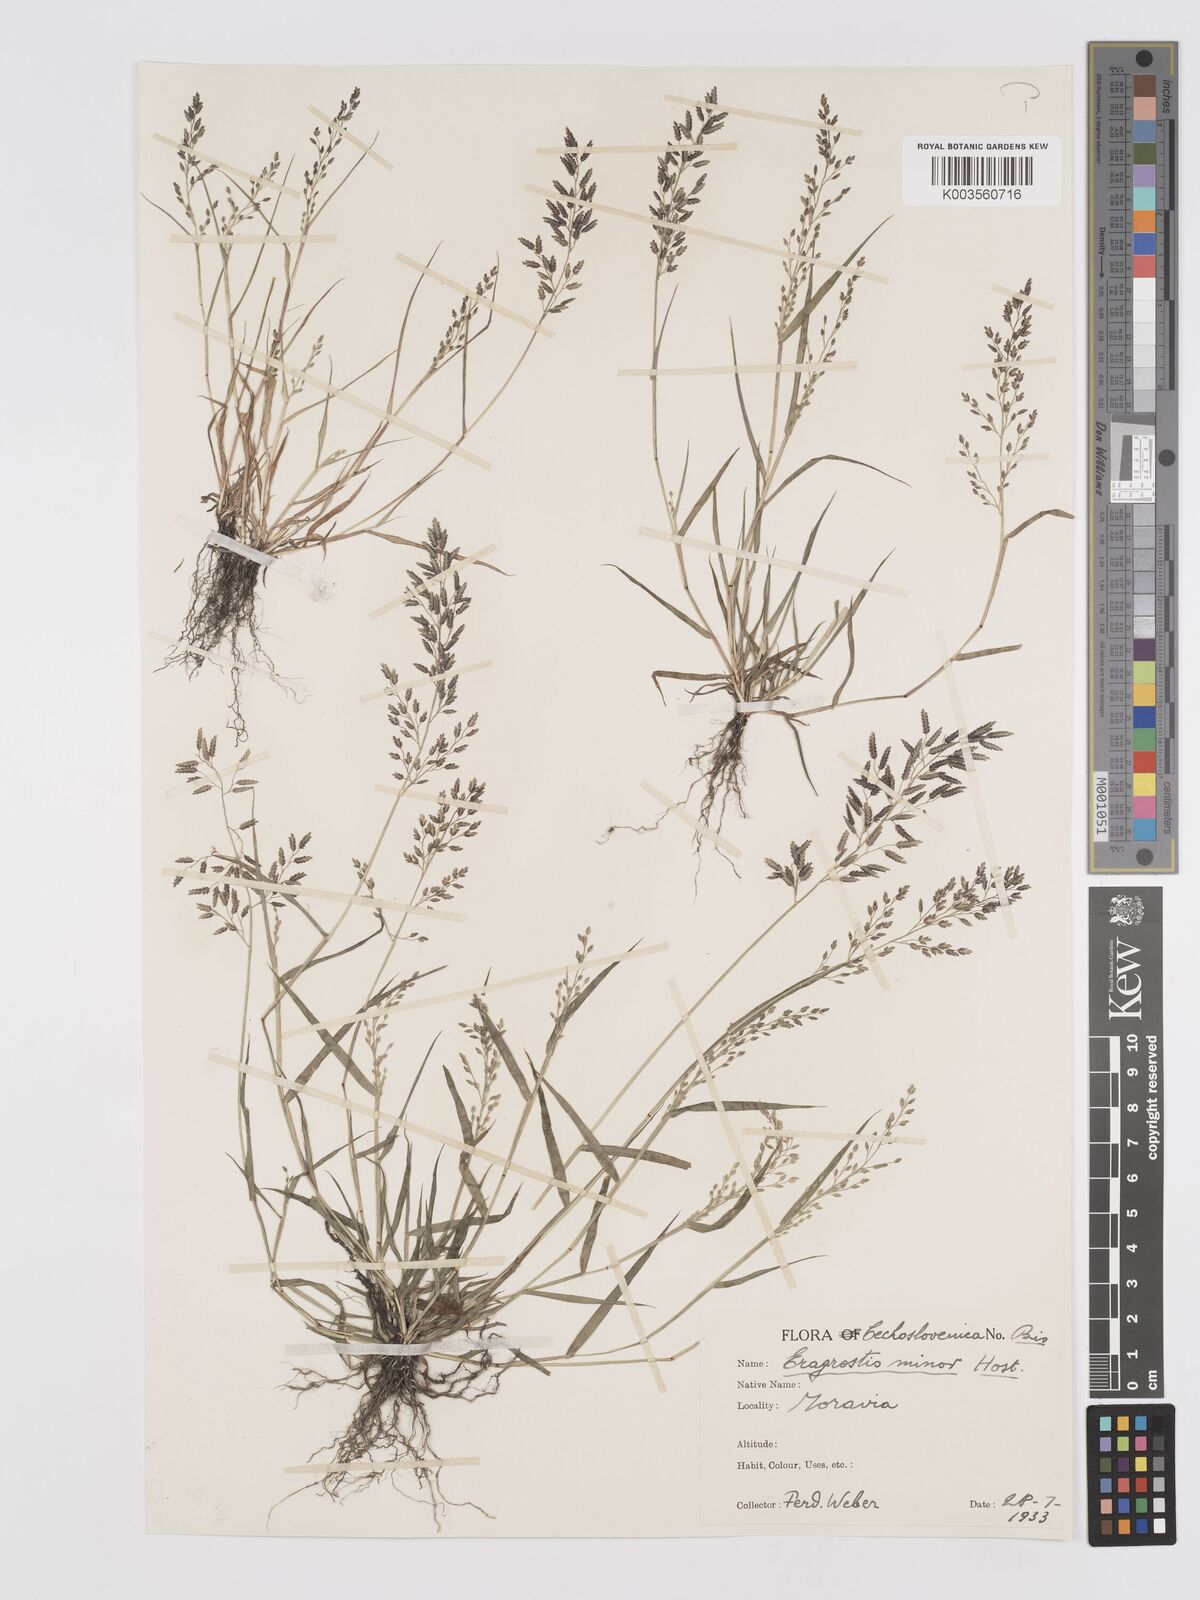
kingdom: Plantae
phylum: Tracheophyta
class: Liliopsida
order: Poales
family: Poaceae
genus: Eragrostis
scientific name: Eragrostis minor
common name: Small love-grass
